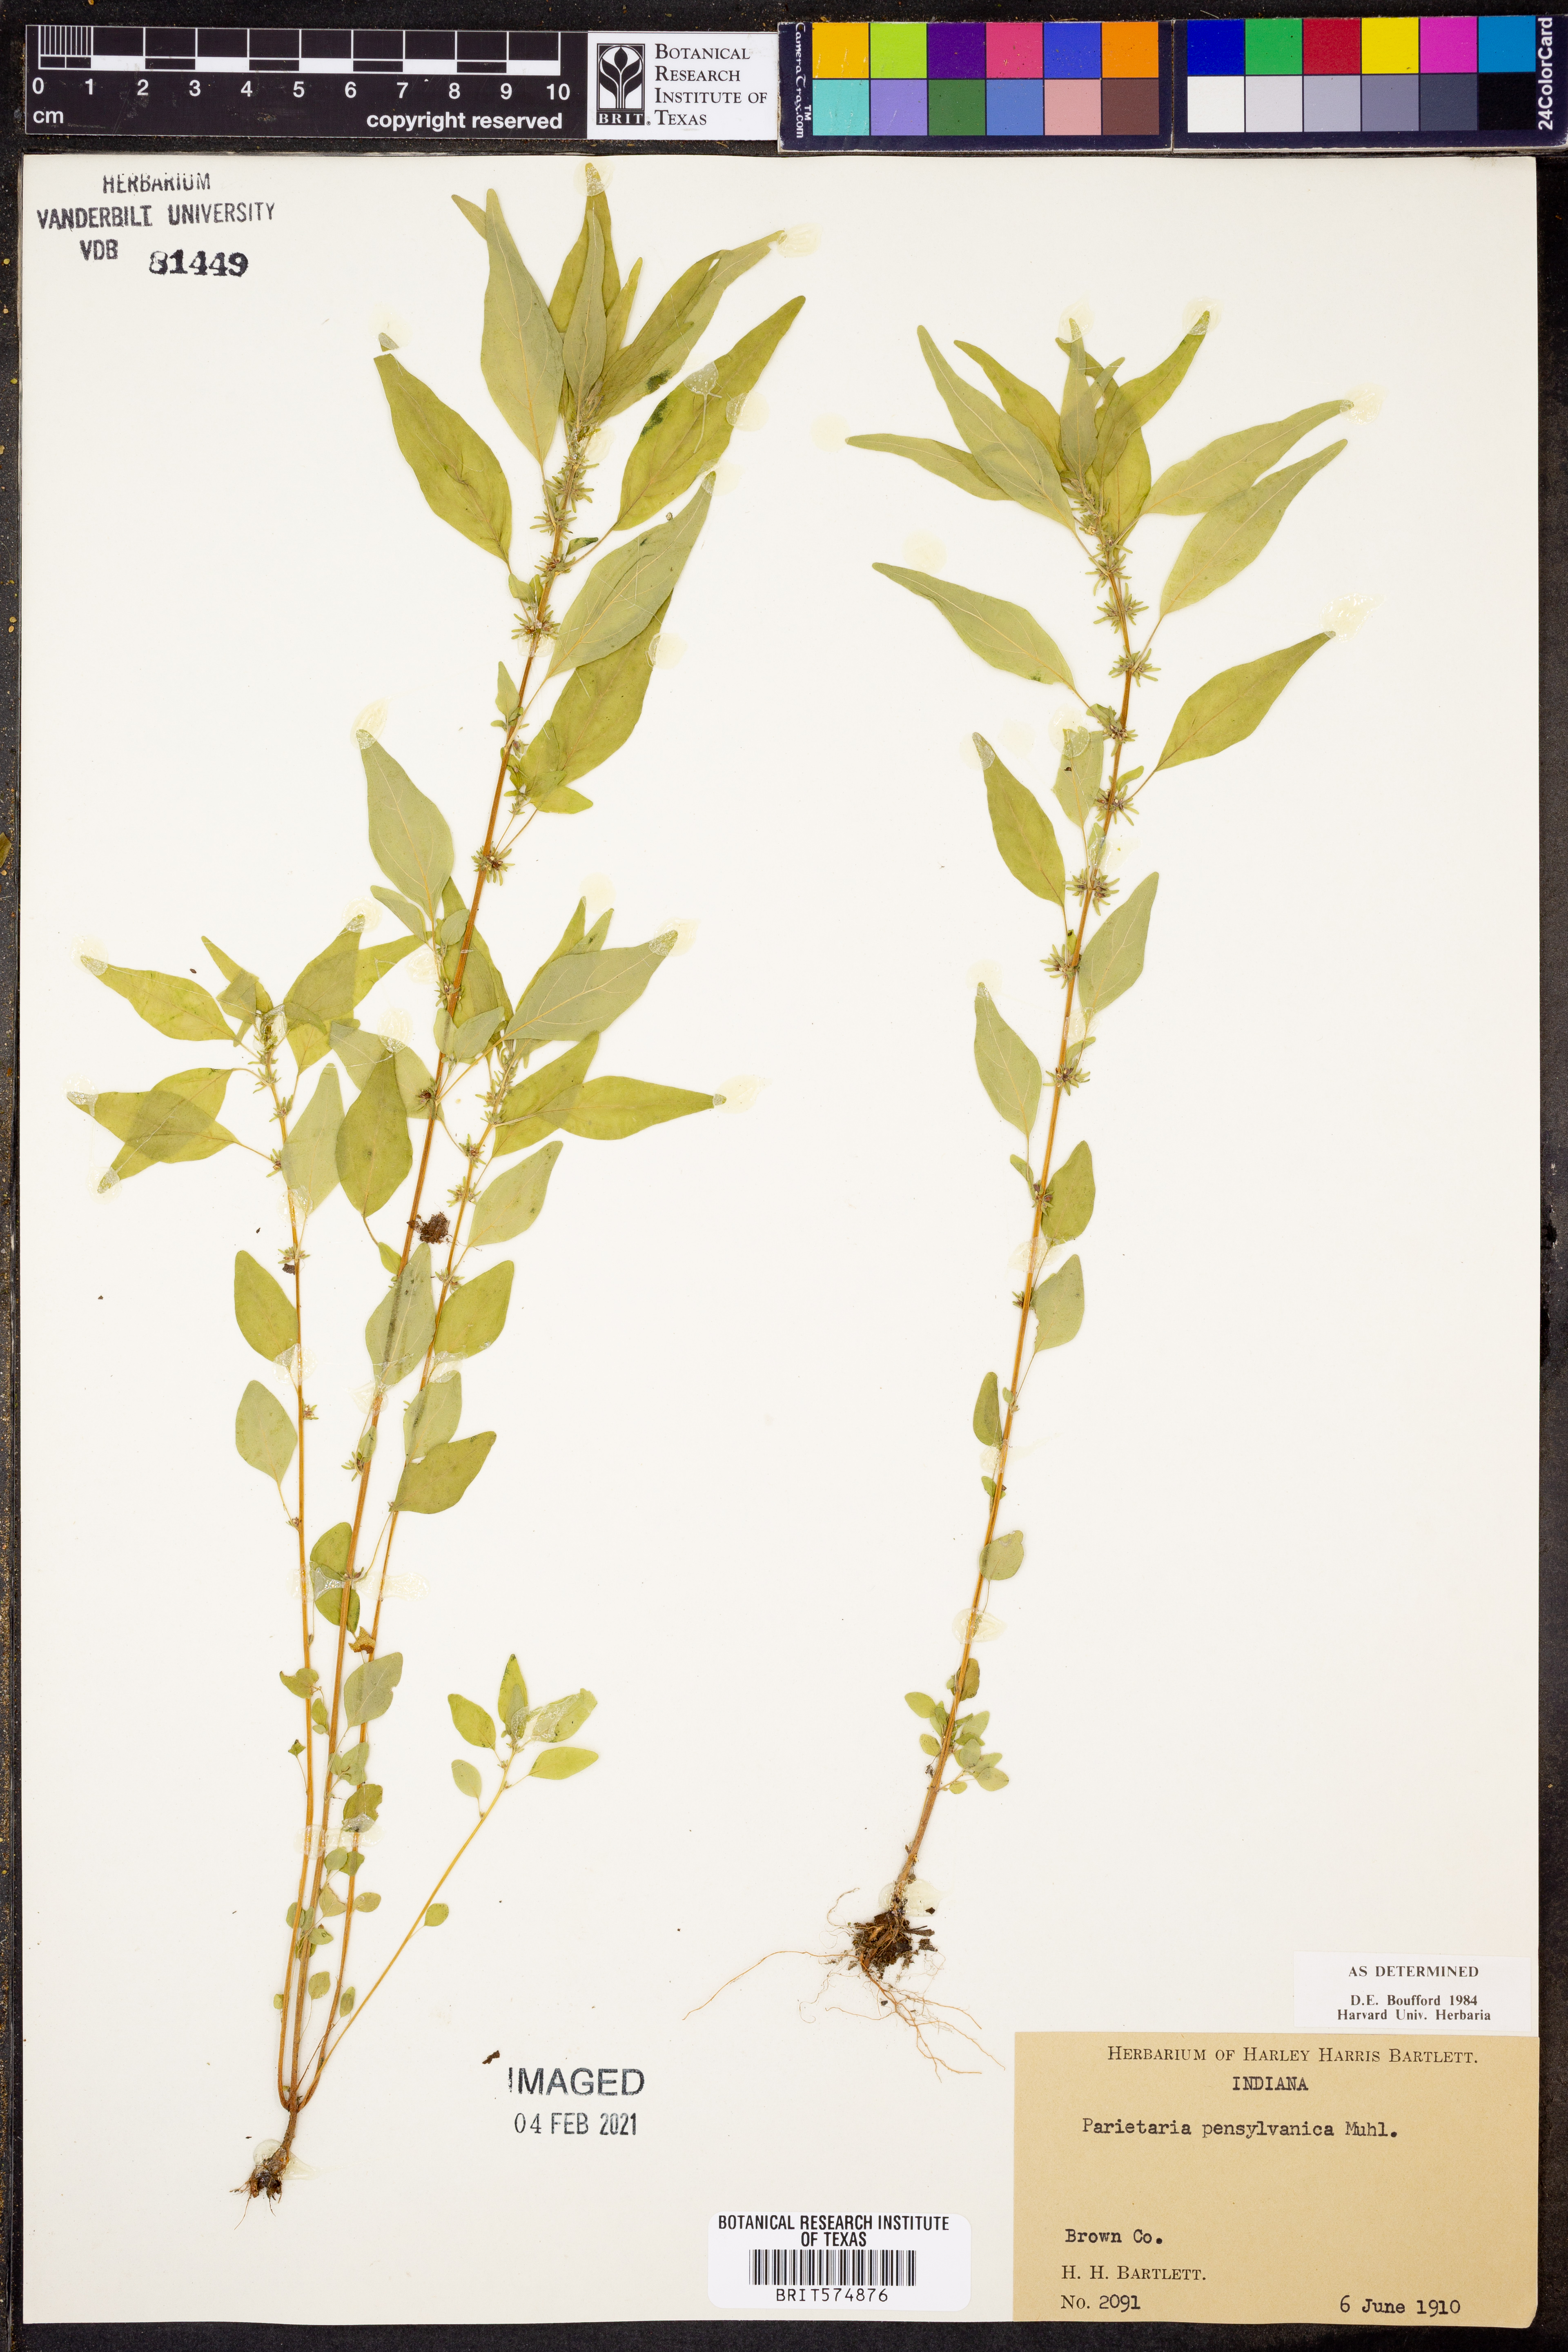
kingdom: Plantae
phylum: Tracheophyta
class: Magnoliopsida
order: Rosales
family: Urticaceae
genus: Parietaria
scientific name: Parietaria pensylvanica
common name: Pennsylvania pellitory
